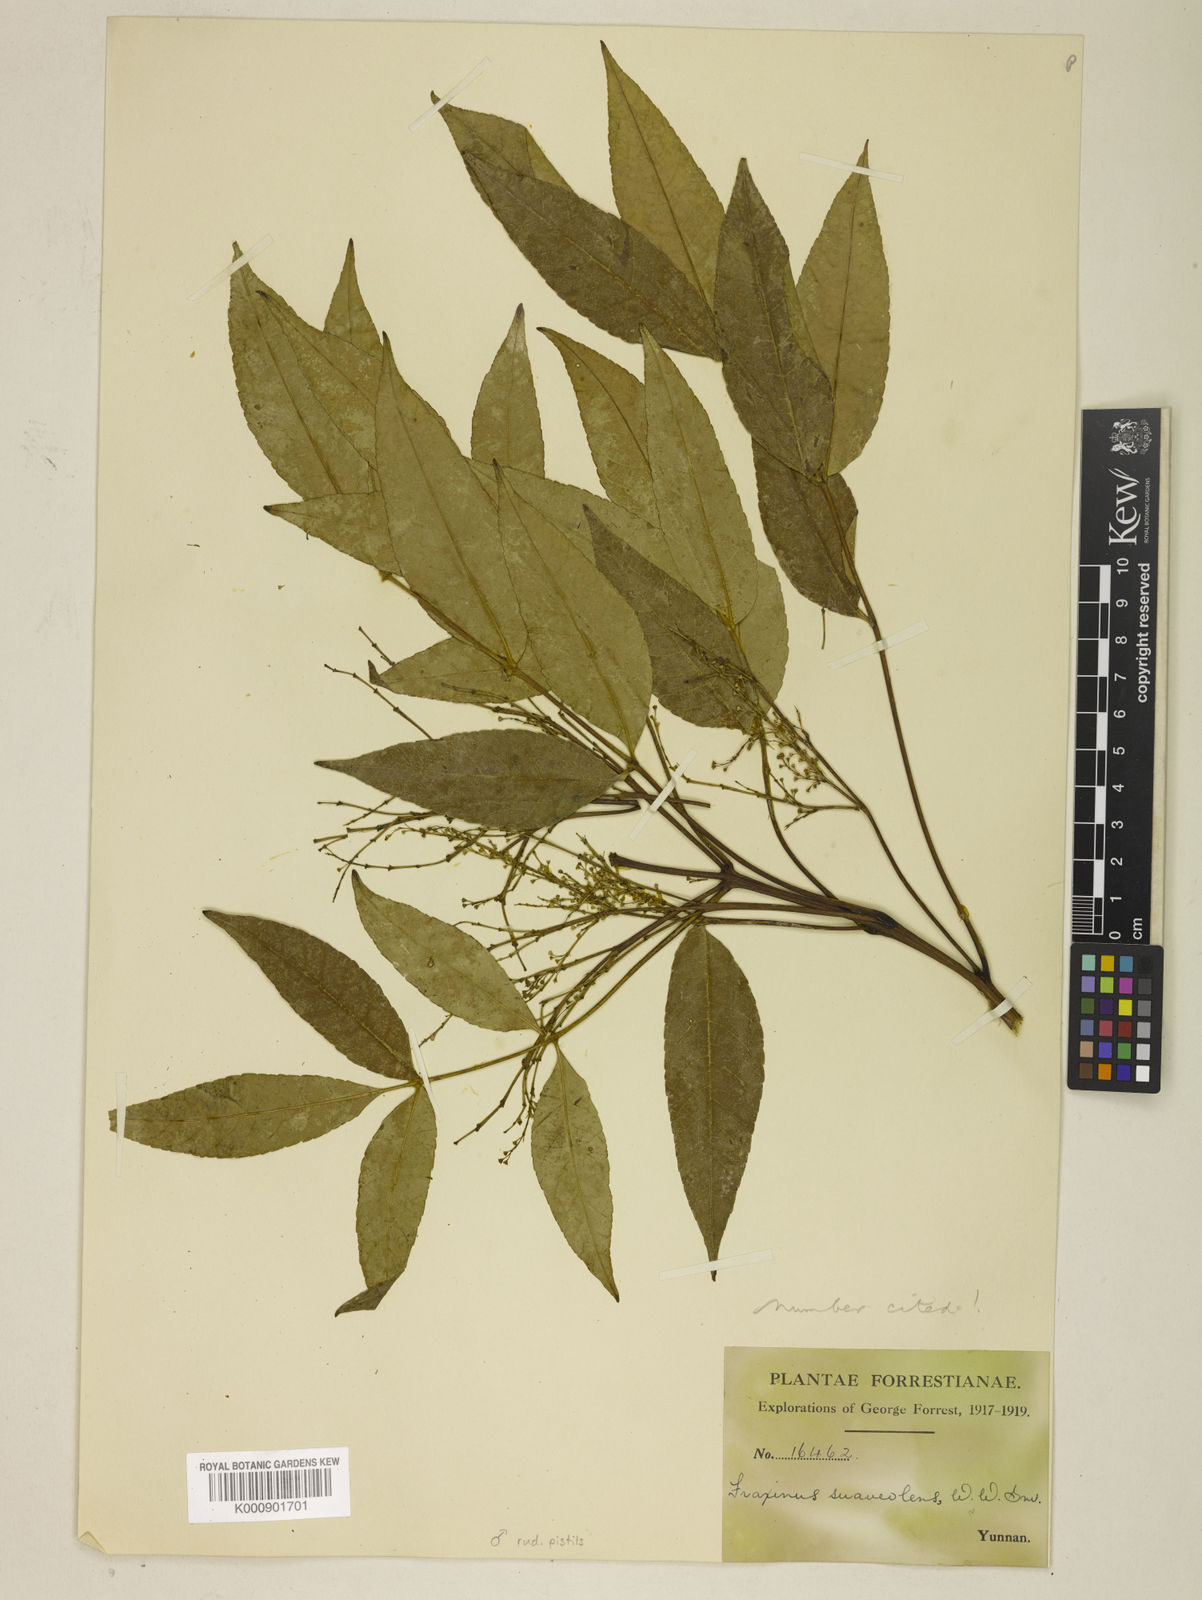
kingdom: Plantae
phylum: Tracheophyta
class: Magnoliopsida
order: Lamiales
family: Oleaceae
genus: Fraxinus
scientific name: Fraxinus paxiana
